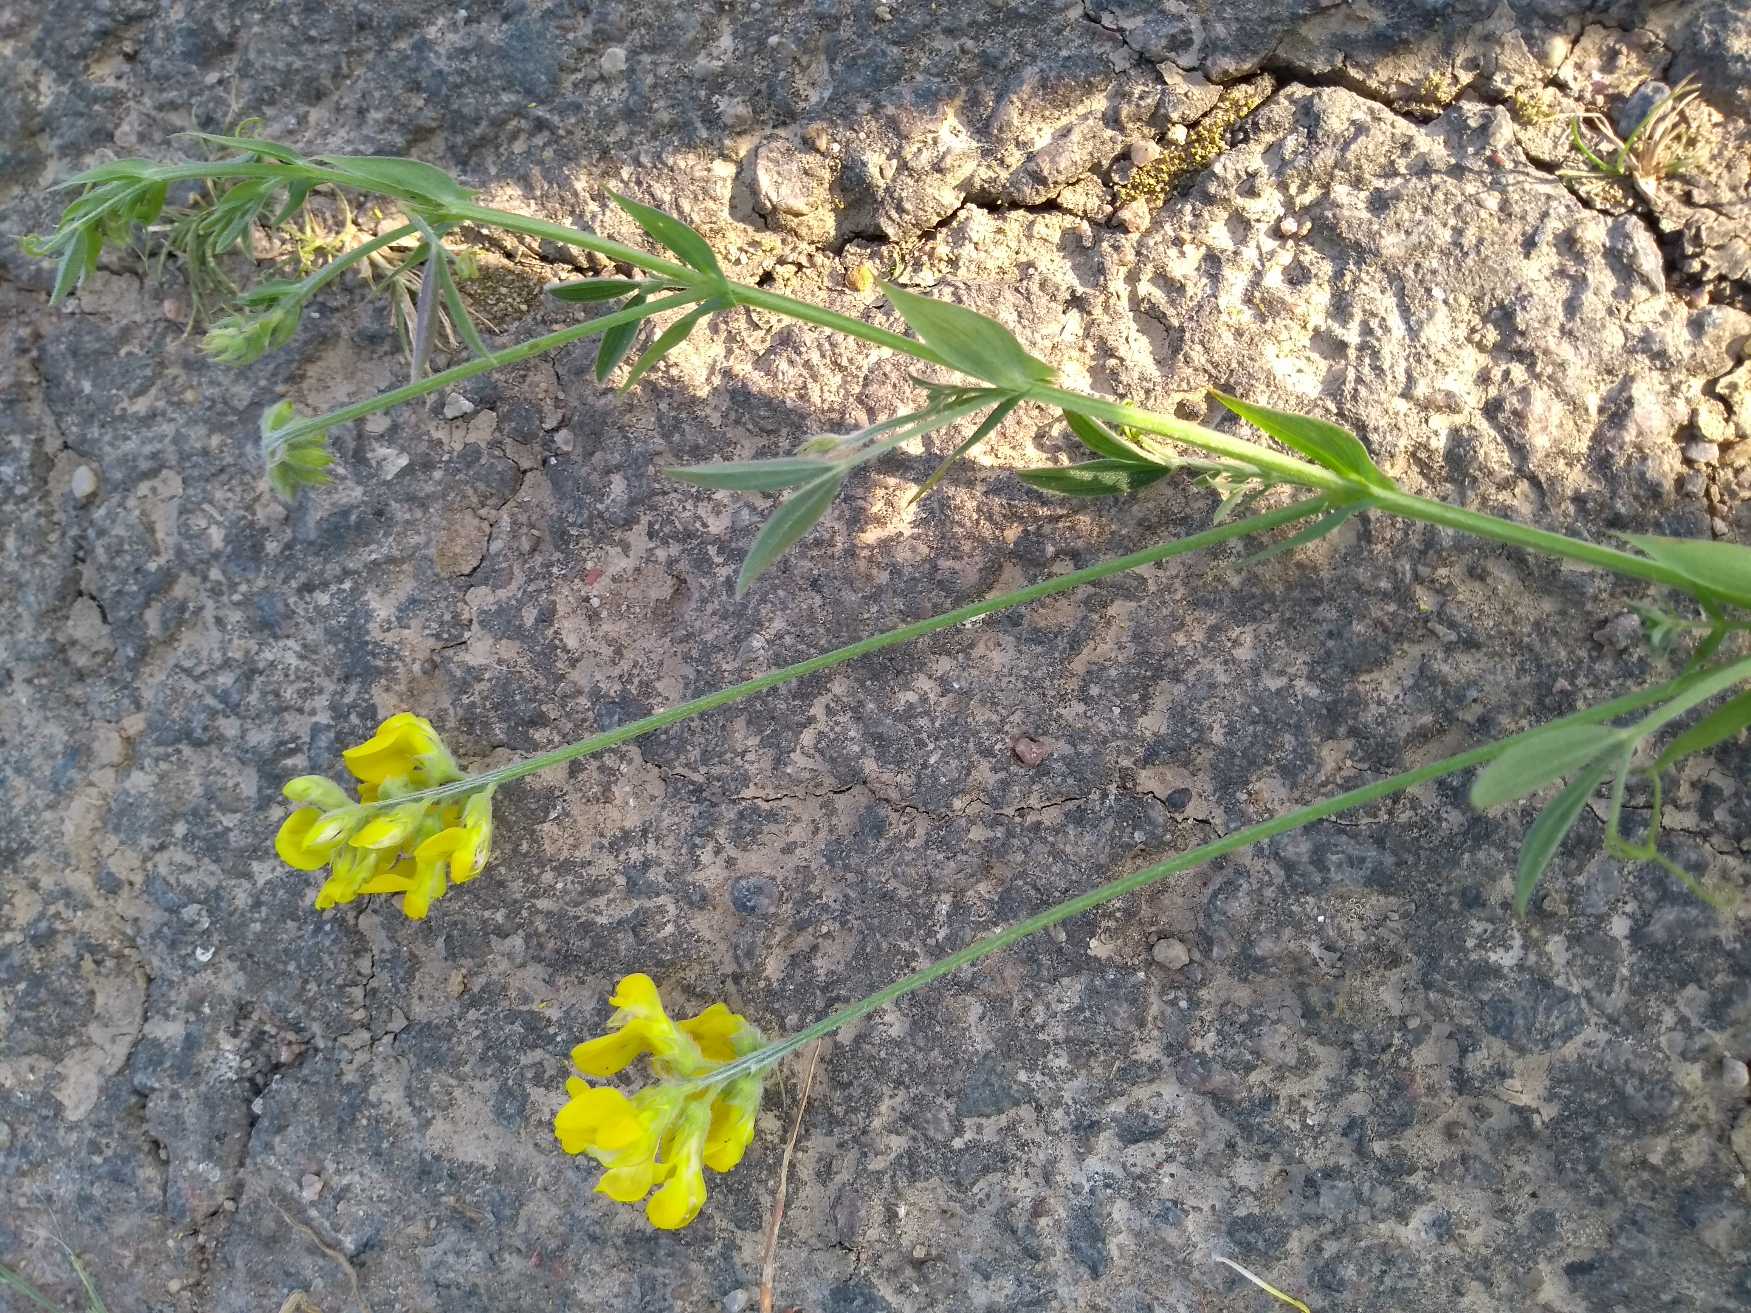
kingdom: Plantae
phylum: Tracheophyta
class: Magnoliopsida
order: Fabales
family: Fabaceae
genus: Lathyrus
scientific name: Lathyrus pratensis
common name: Gul fladbælg
